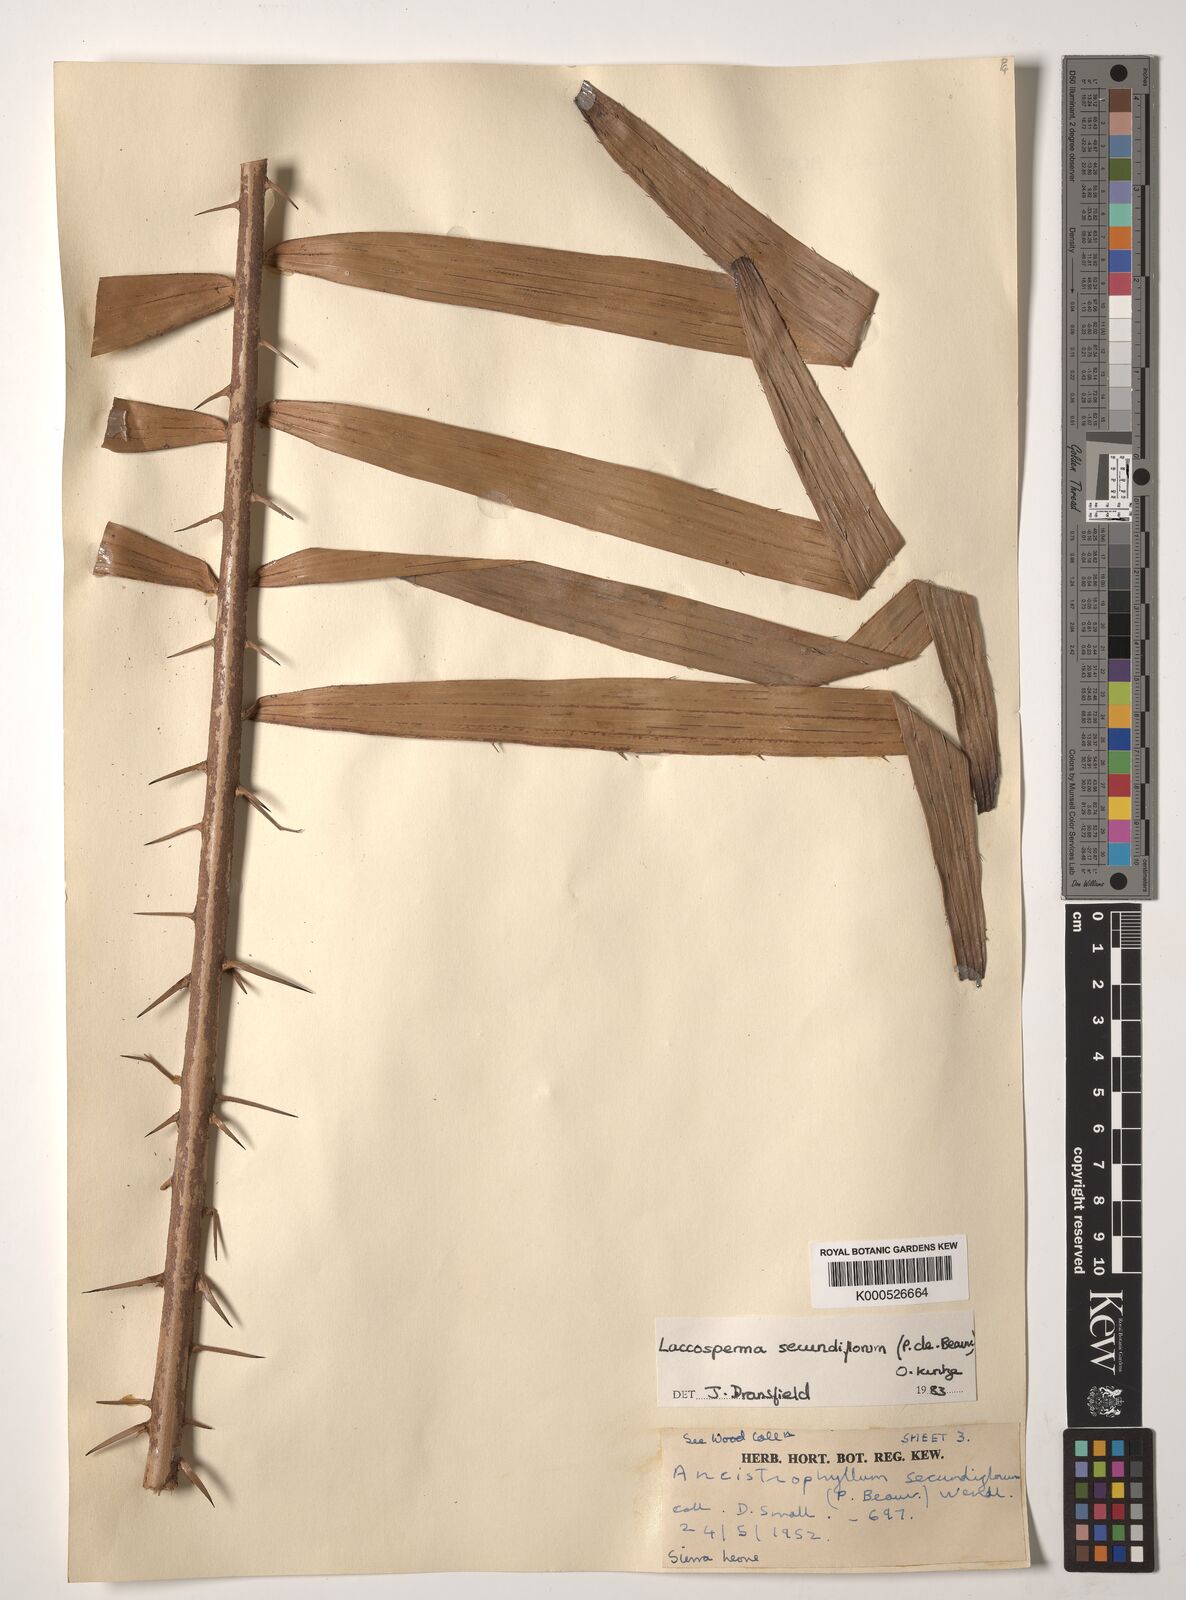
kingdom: Plantae
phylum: Tracheophyta
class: Liliopsida
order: Arecales
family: Arecaceae
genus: Laccosperma
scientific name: Laccosperma secundiflorum
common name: Rattan
